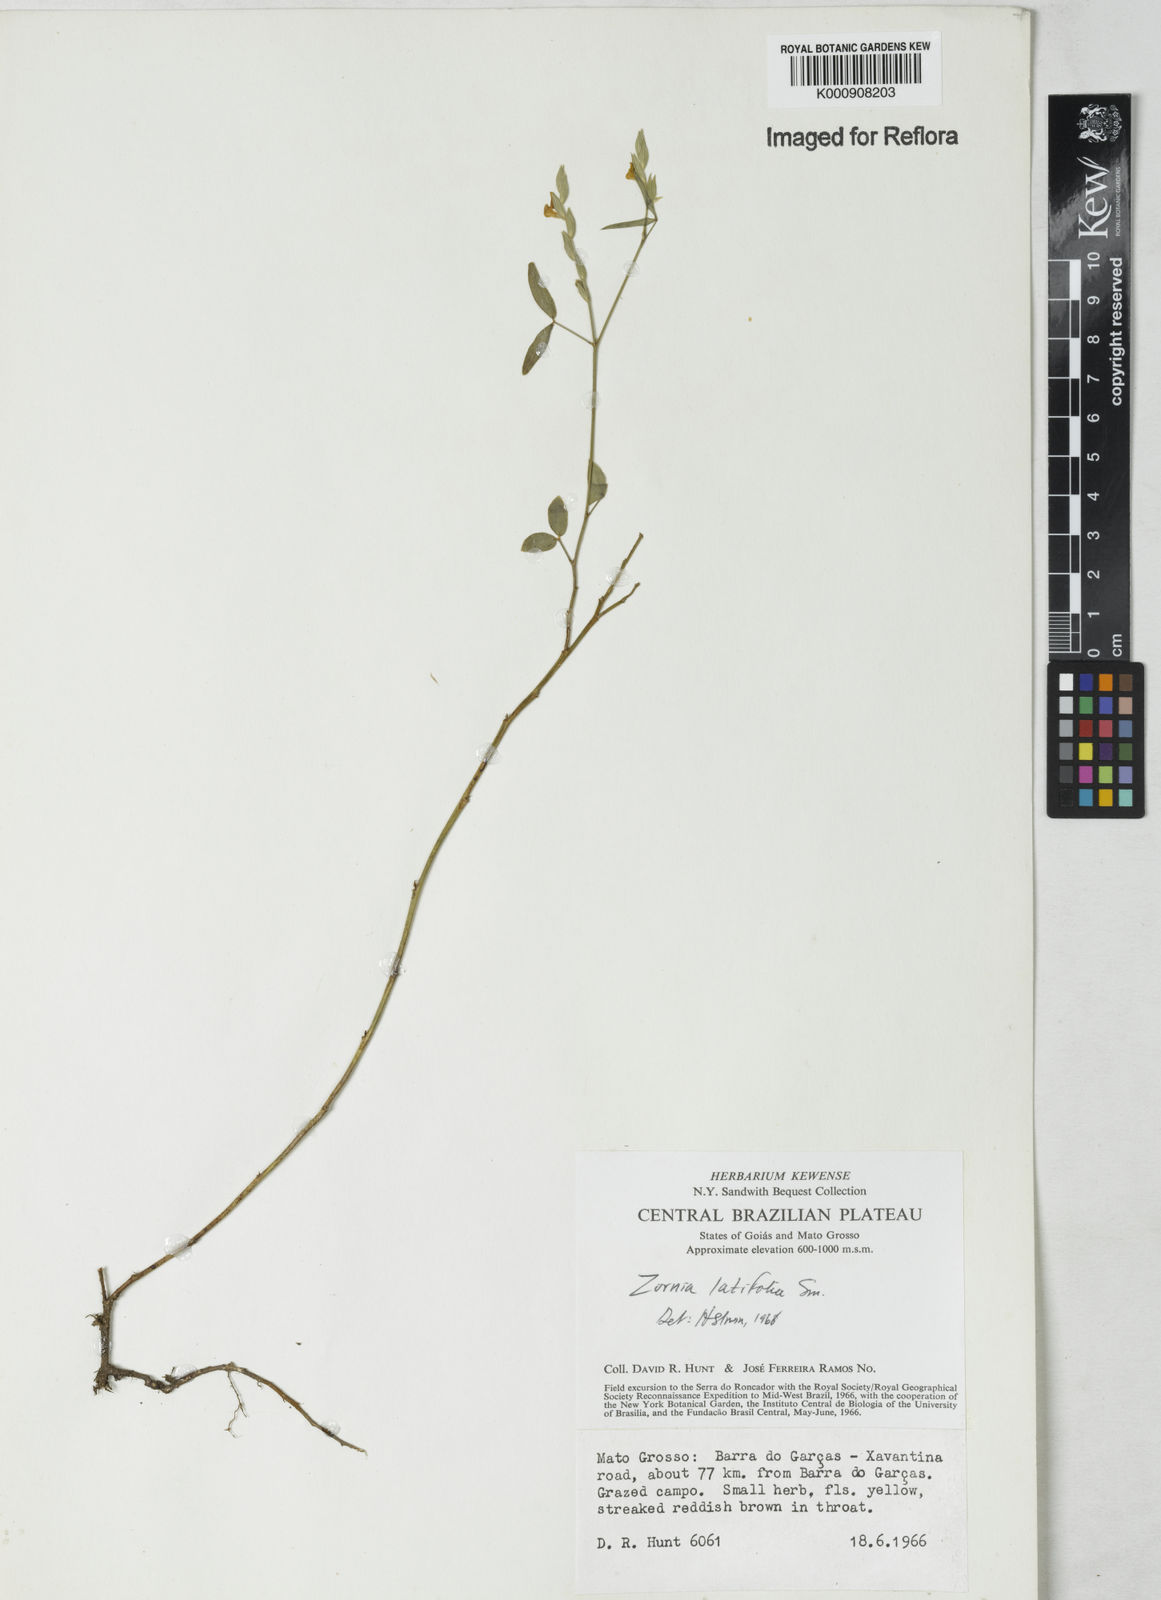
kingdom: Plantae
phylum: Tracheophyta
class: Magnoliopsida
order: Fabales
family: Fabaceae
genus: Zornia
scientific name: Zornia latifolia
